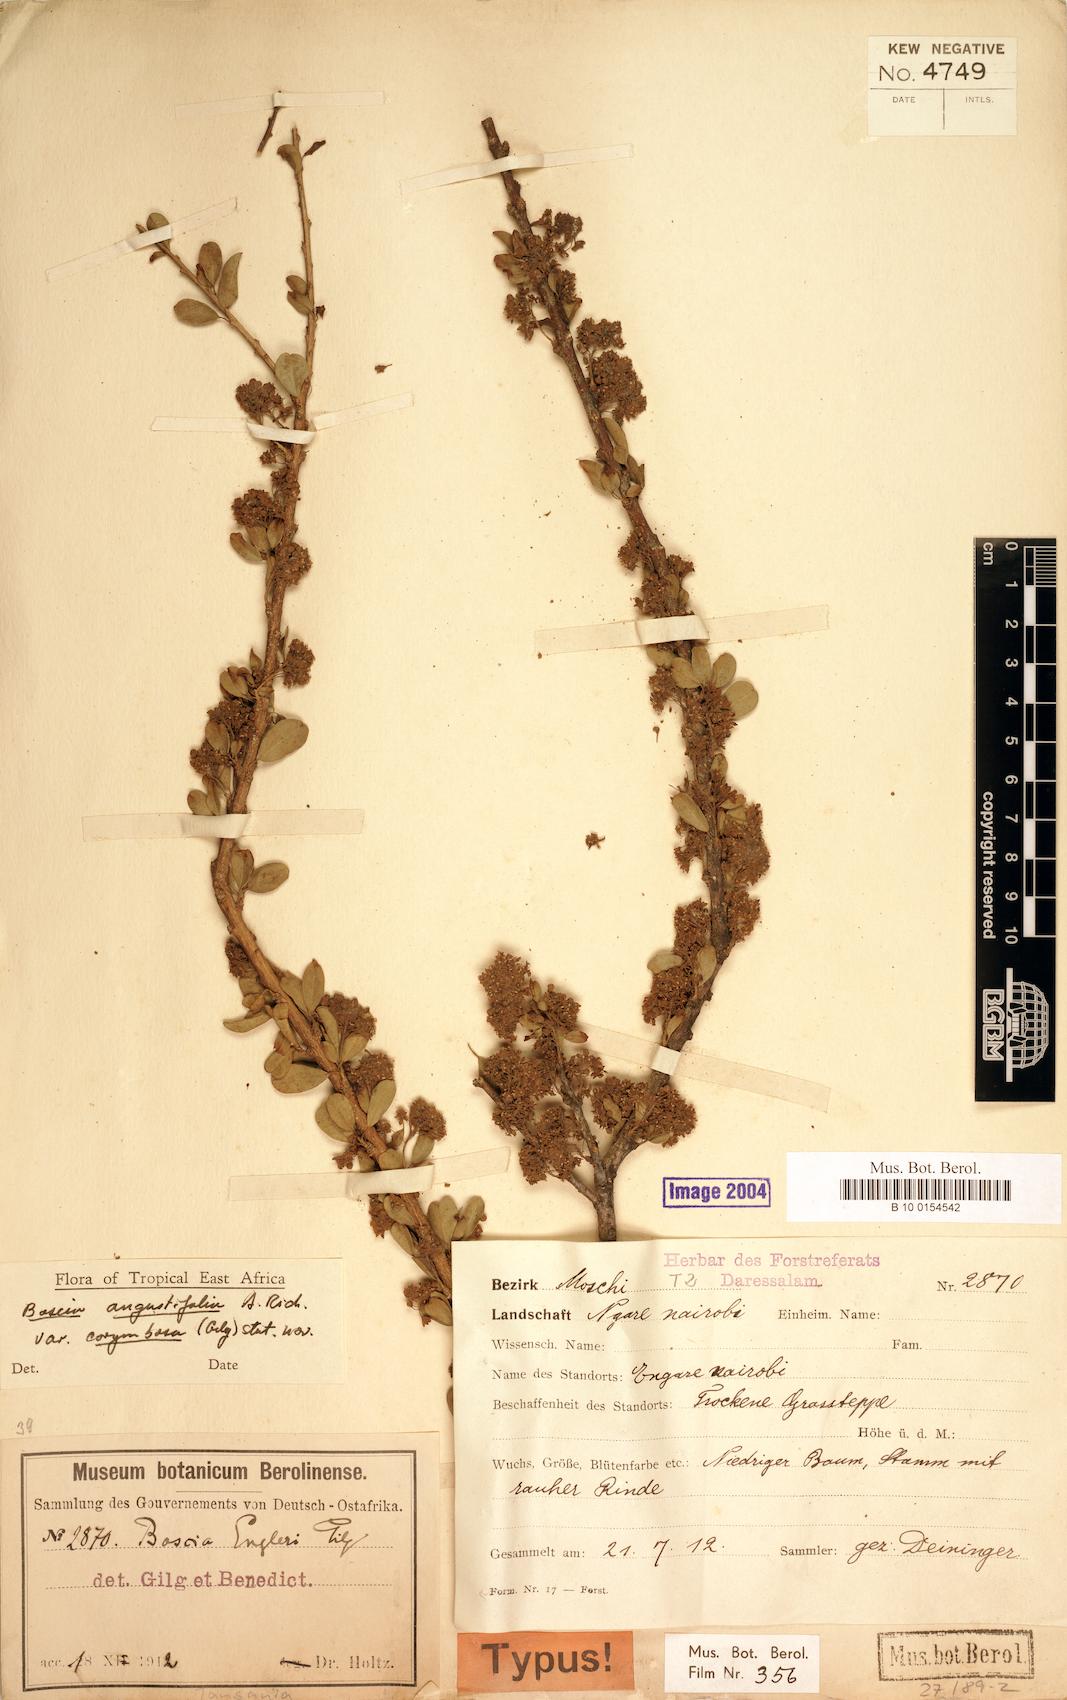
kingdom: Plantae
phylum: Tracheophyta
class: Magnoliopsida
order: Brassicales
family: Capparaceae
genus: Boscia
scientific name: Boscia angustifolia
